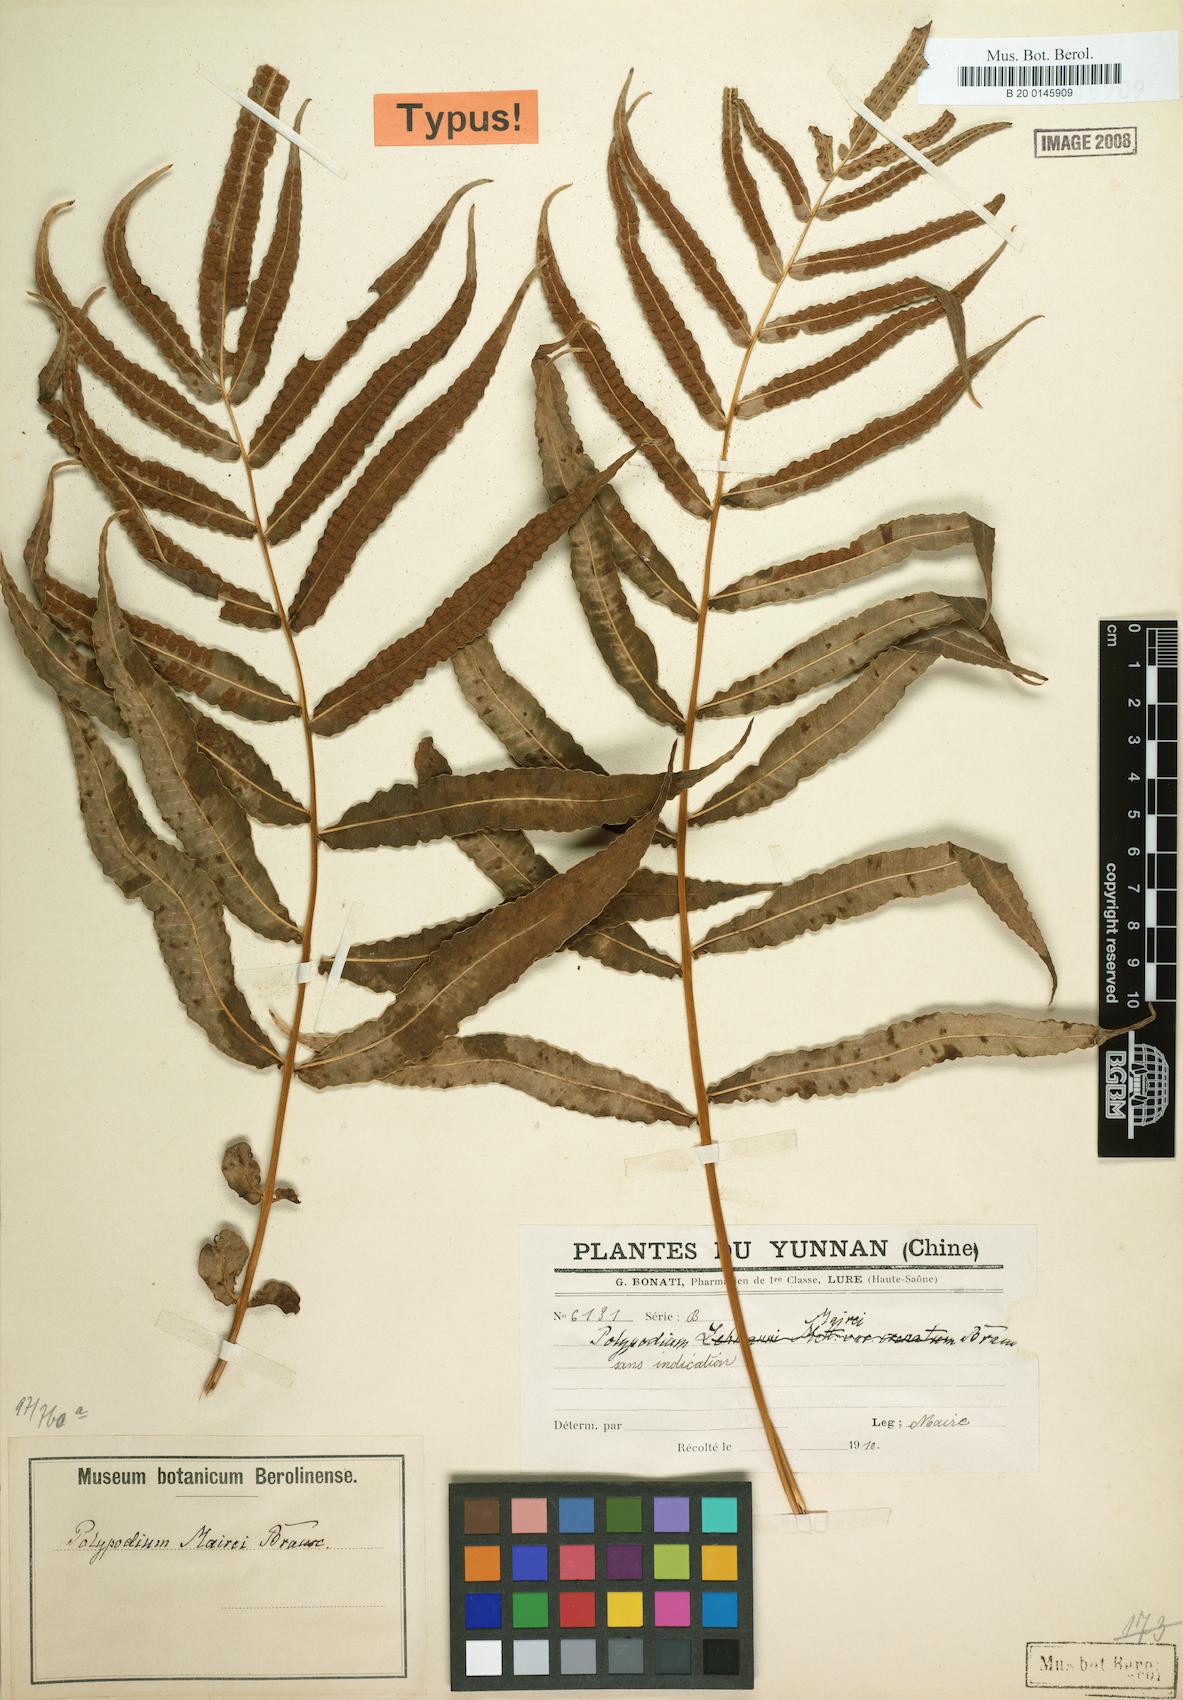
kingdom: Plantae
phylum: Tracheophyta
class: Polypodiopsida
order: Polypodiales
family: Polypodiaceae
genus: Selliguea
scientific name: Selliguea moulmeinensis
